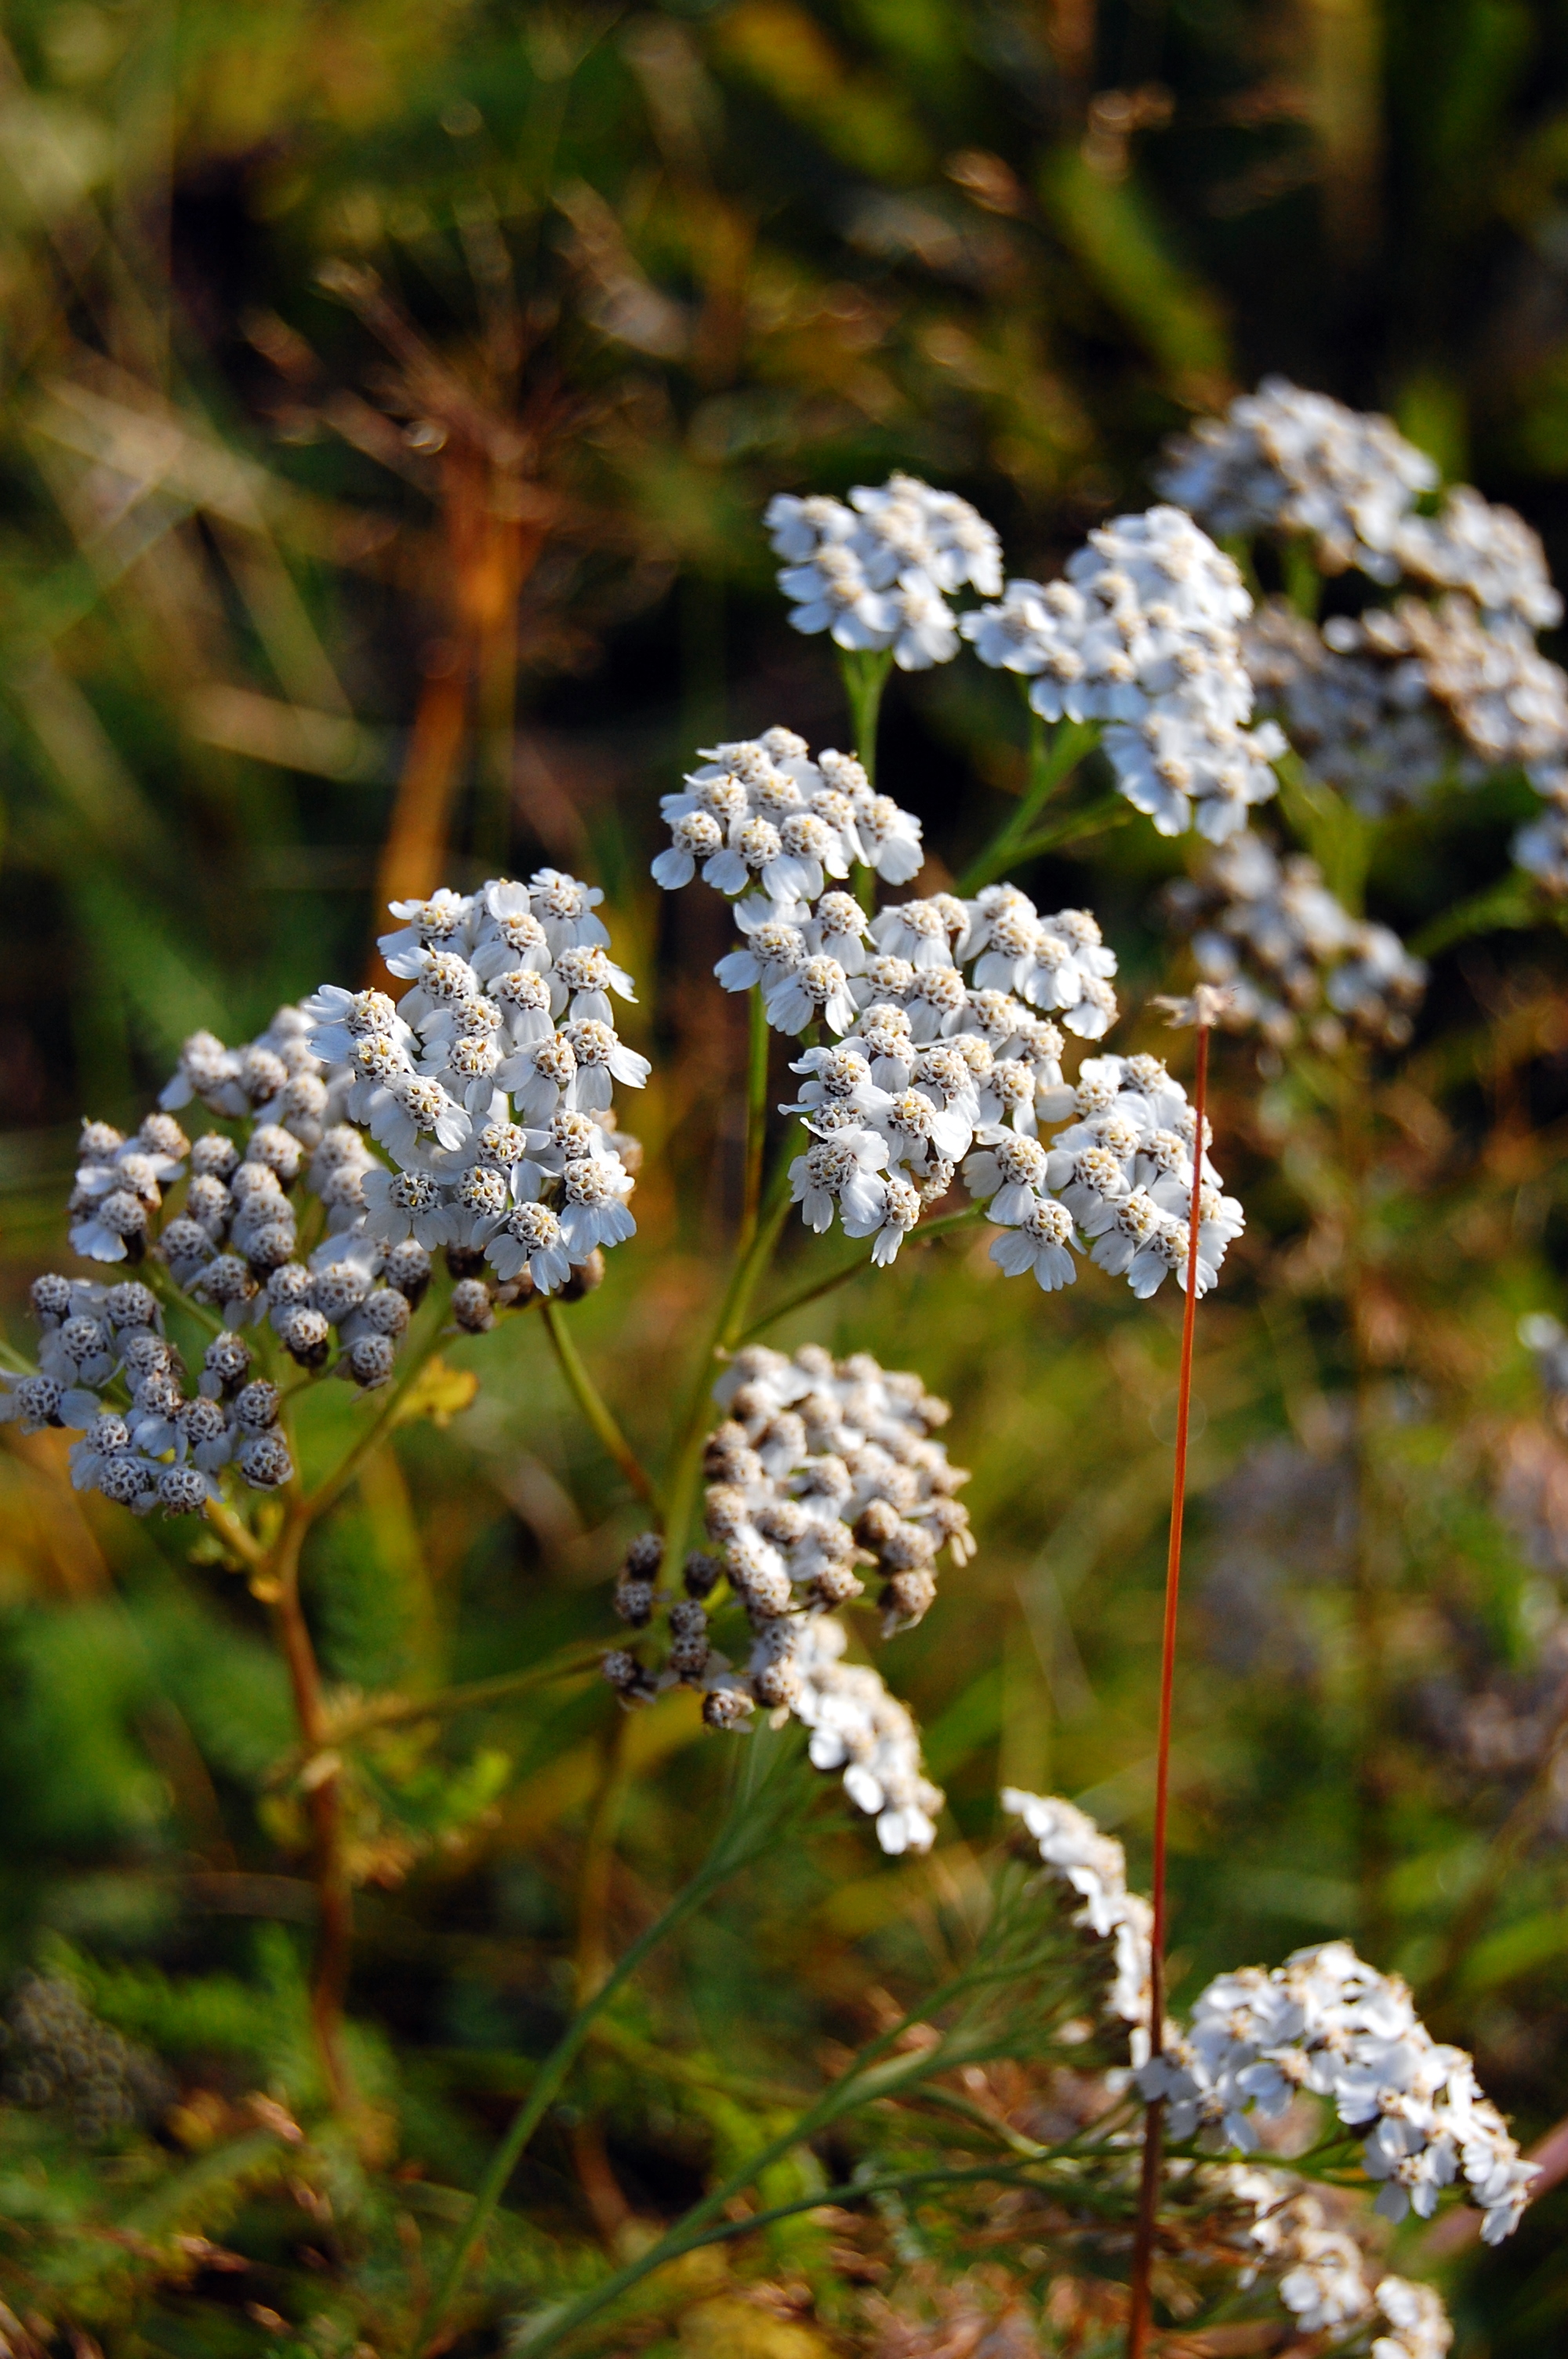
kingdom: Plantae
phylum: Tracheophyta
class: Magnoliopsida
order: Asterales
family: Asteraceae
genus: Achillea
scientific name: Achillea millefolium
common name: Yarrow
